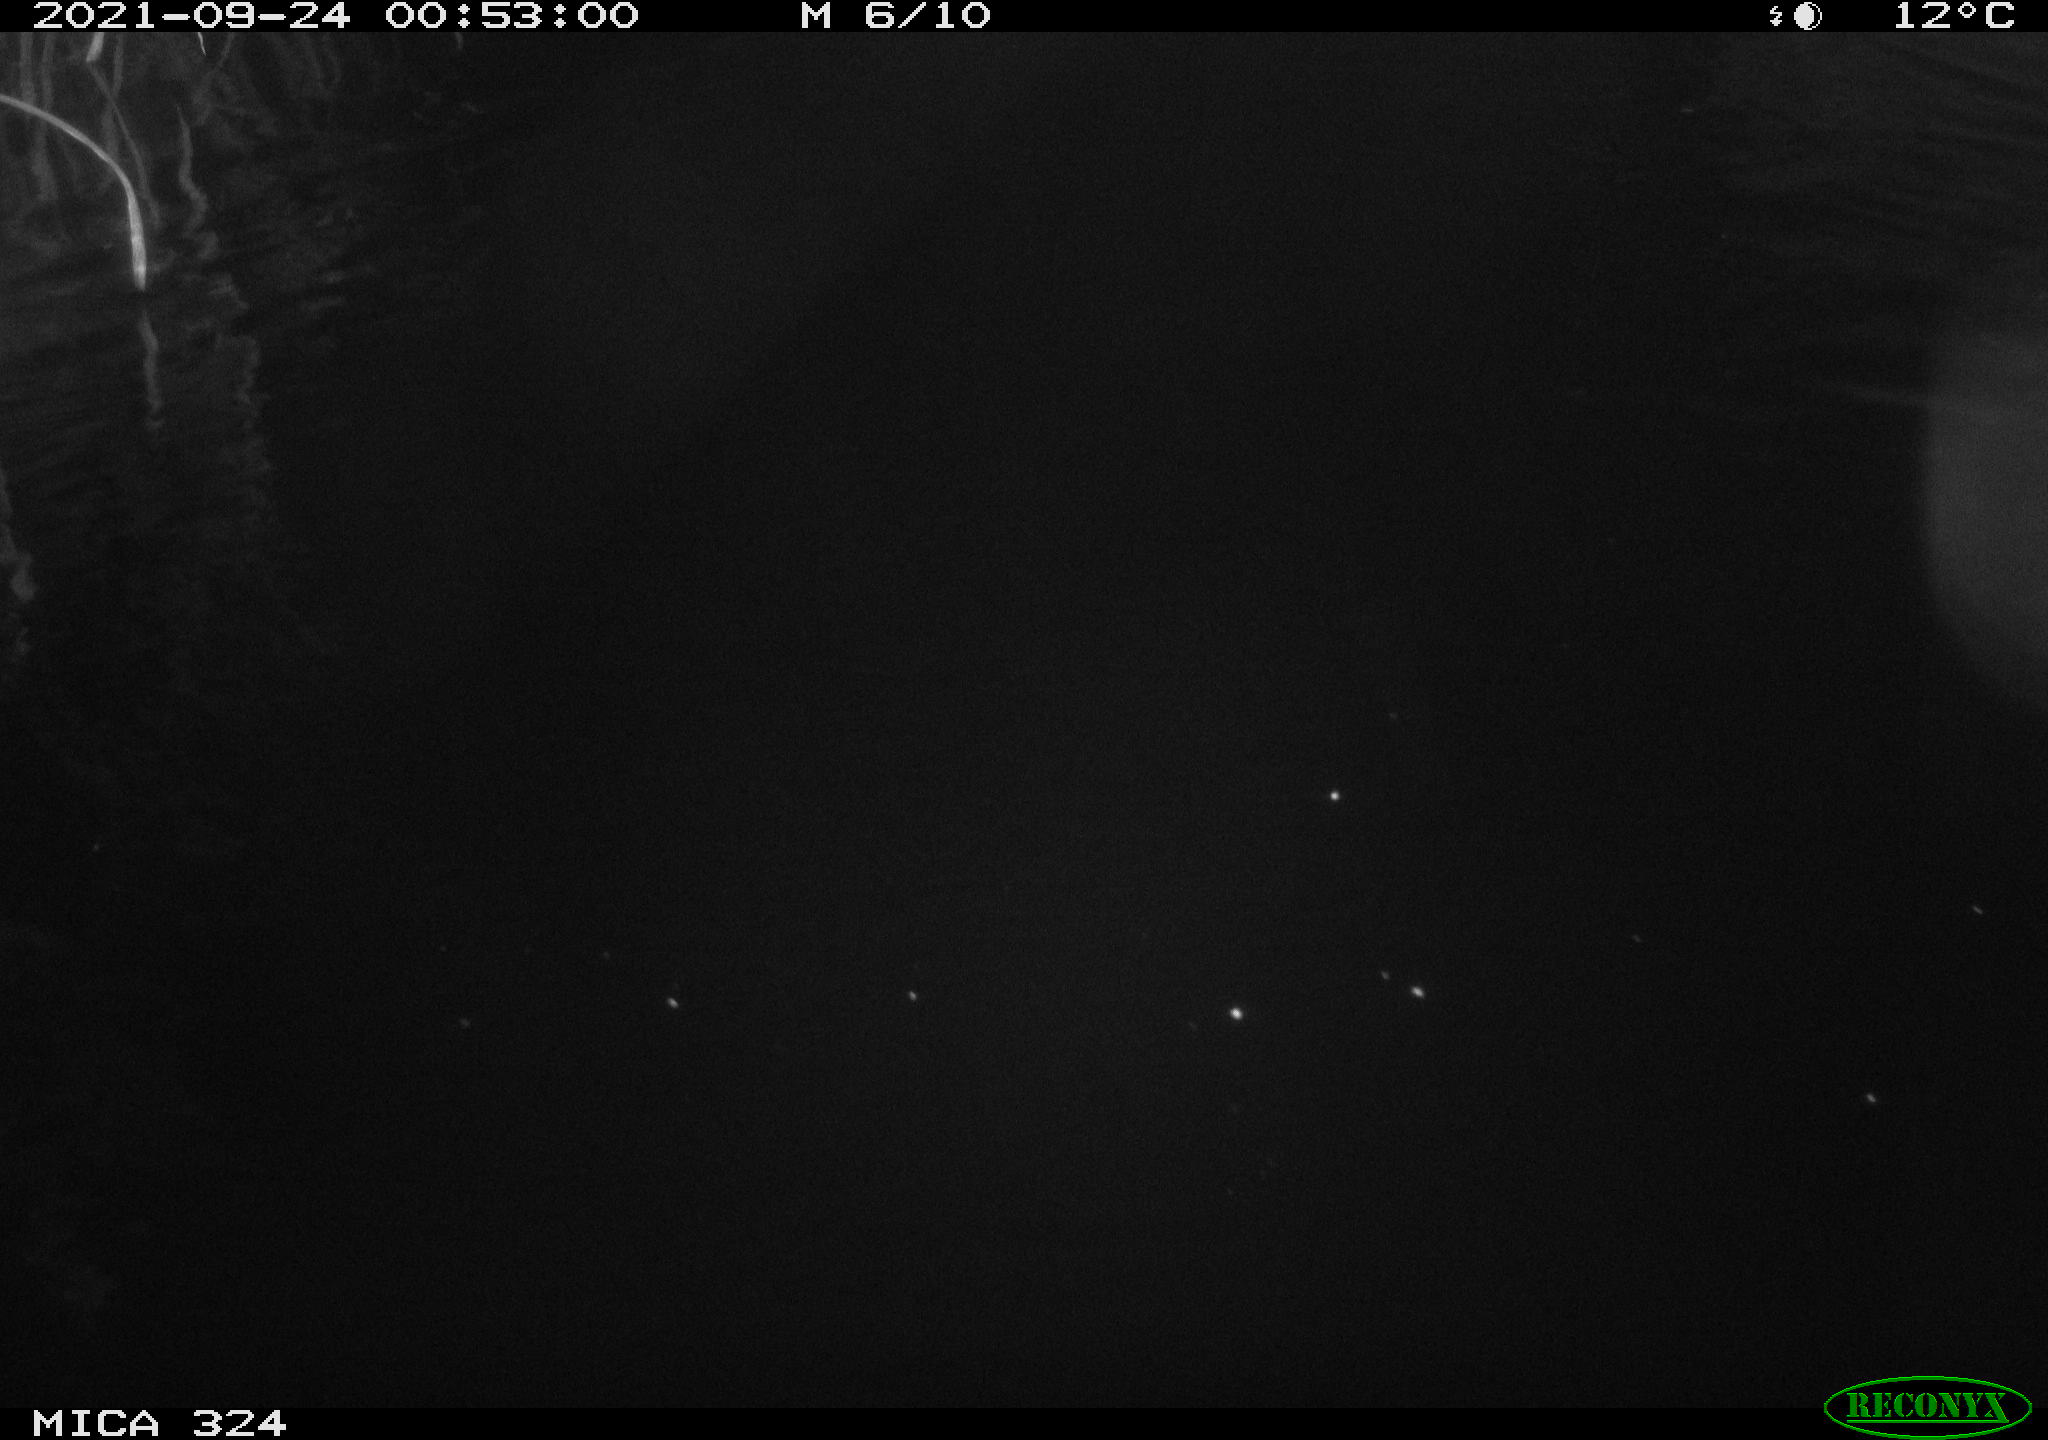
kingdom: Animalia
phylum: Chordata
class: Mammalia
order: Rodentia
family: Cricetidae
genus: Ondatra
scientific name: Ondatra zibethicus
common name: Muskrat
